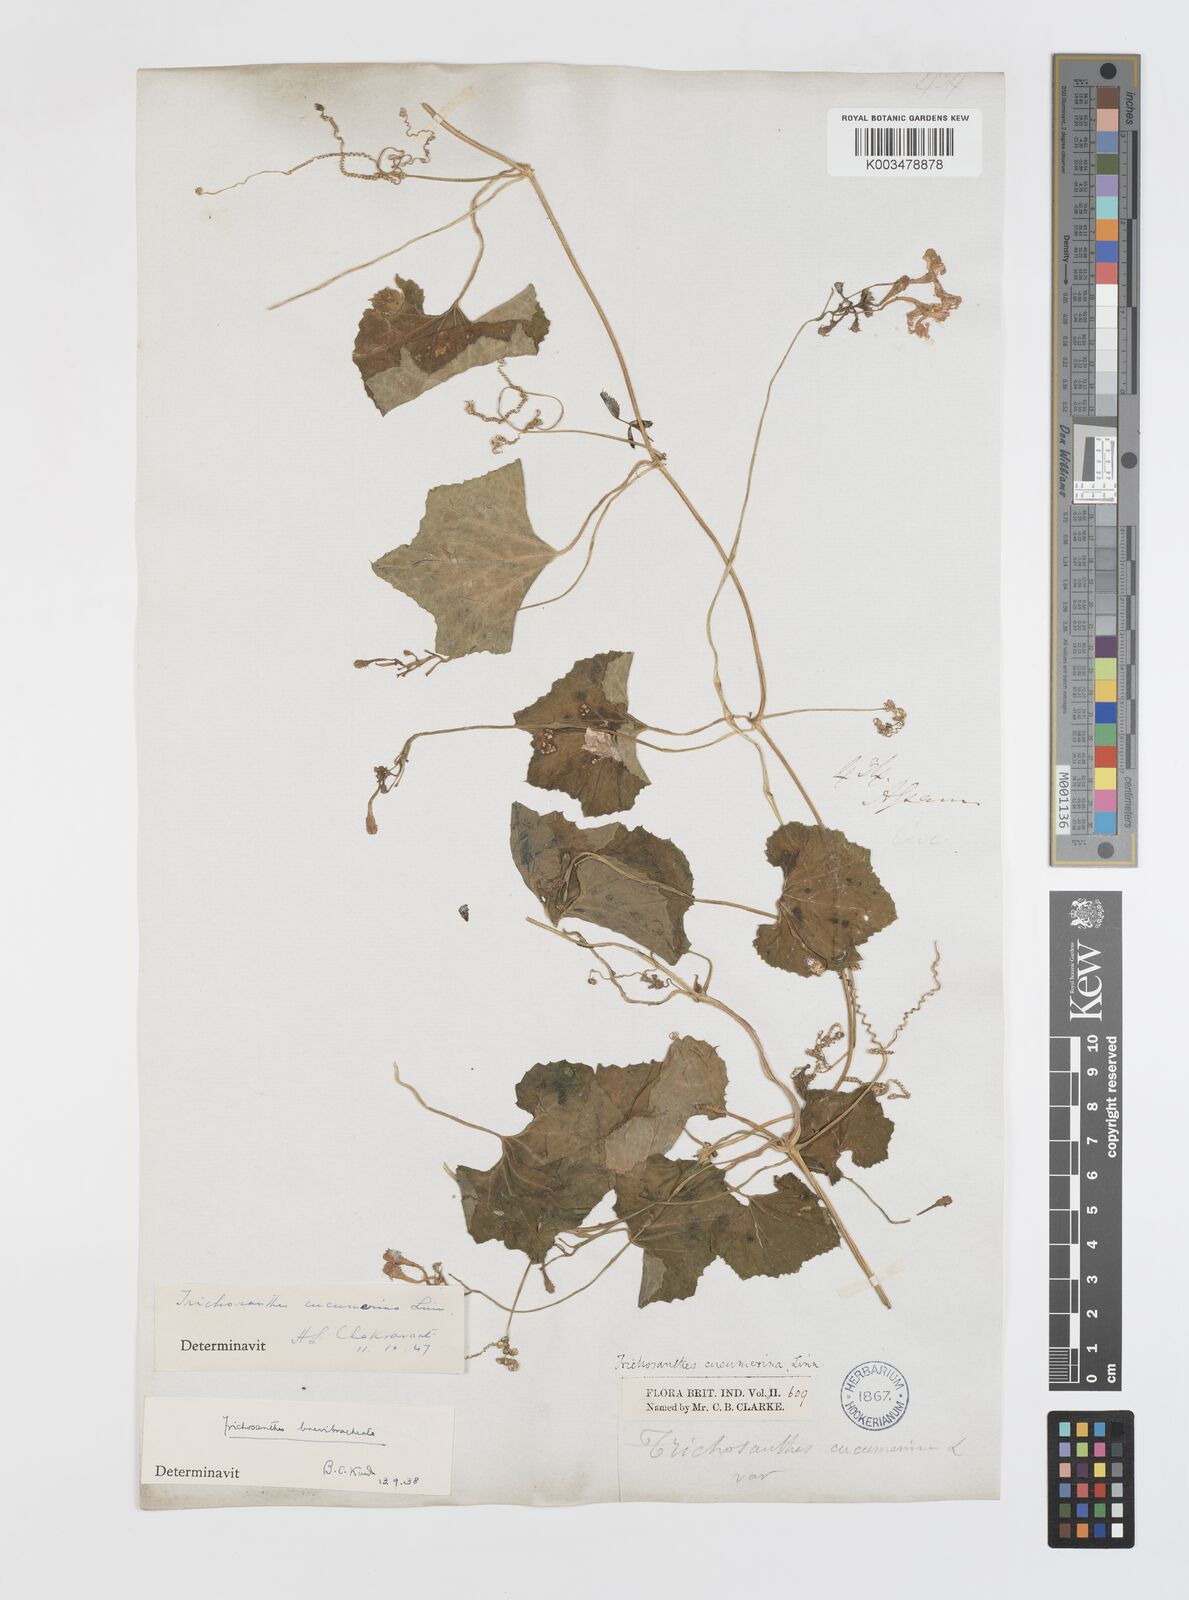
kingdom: Plantae
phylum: Tracheophyta
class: Magnoliopsida
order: Cucurbitales
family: Cucurbitaceae
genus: Trichosanthes
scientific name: Trichosanthes cucumerina
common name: Snakegourd
